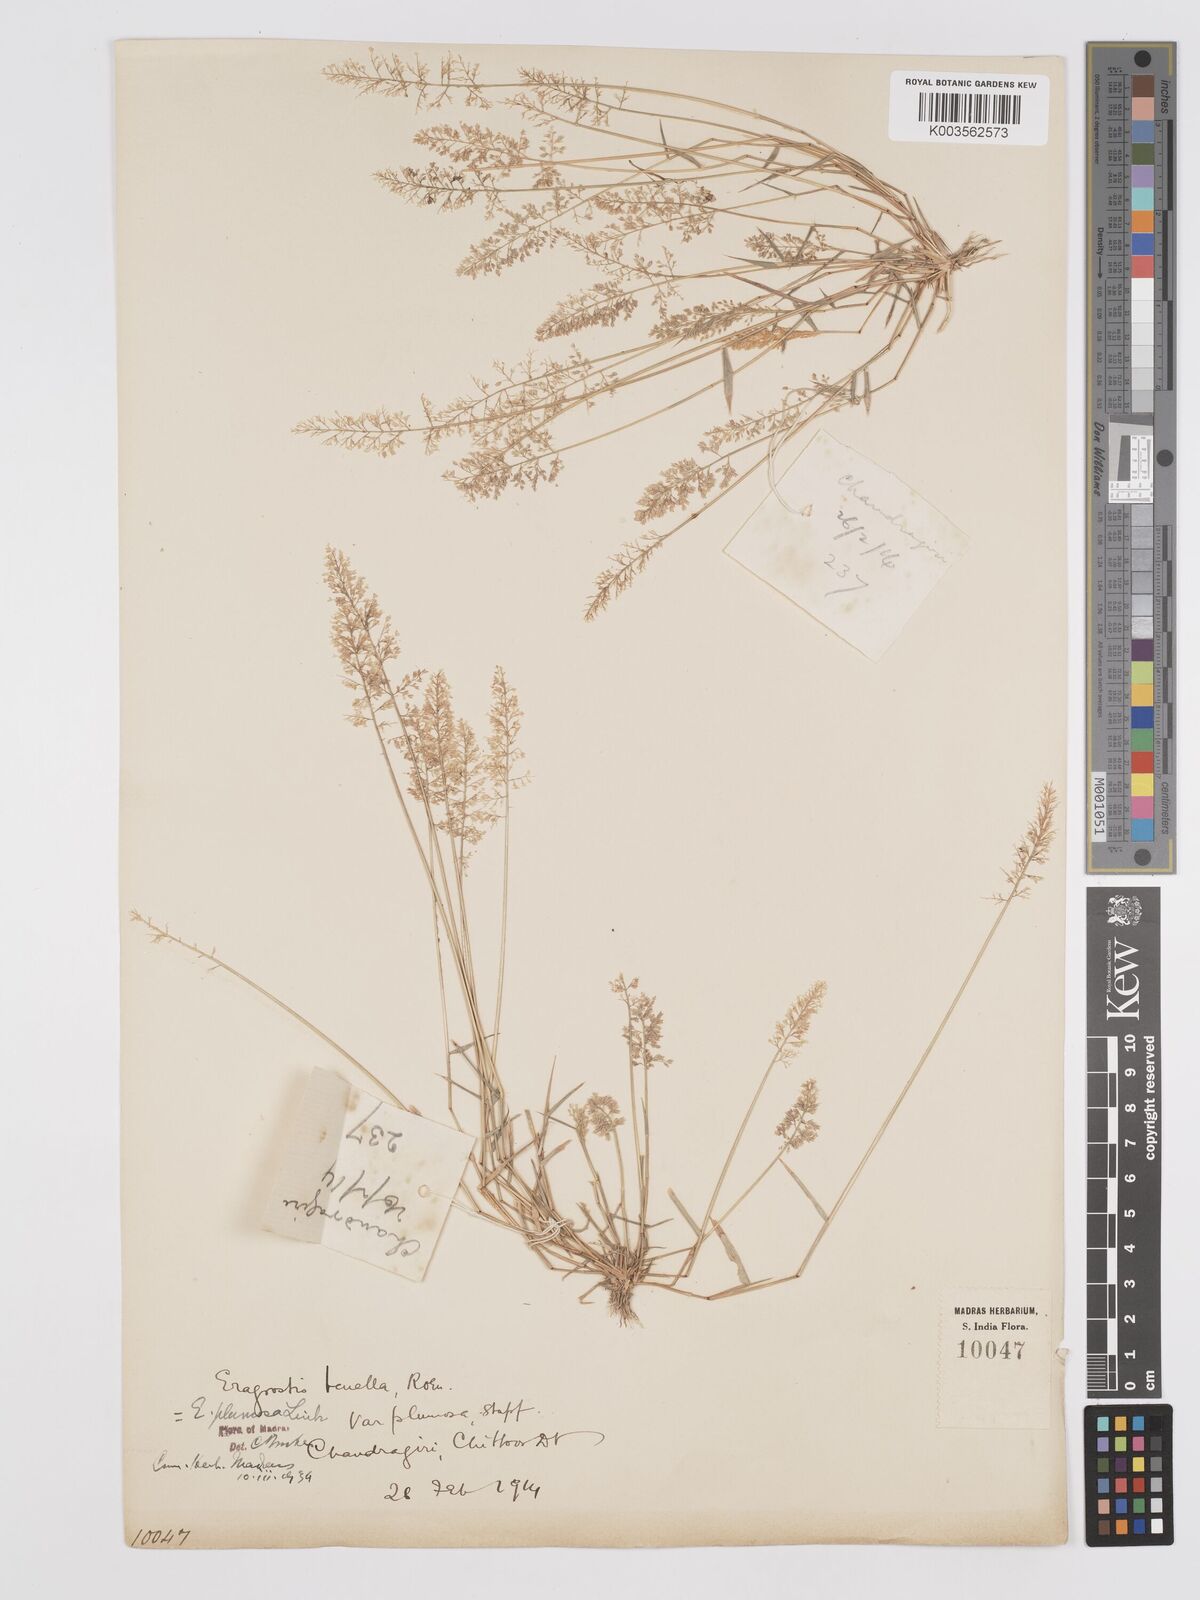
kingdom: Plantae
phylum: Tracheophyta
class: Liliopsida
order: Poales
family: Poaceae
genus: Eragrostis
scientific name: Eragrostis tenella
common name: Japanese lovegrass
